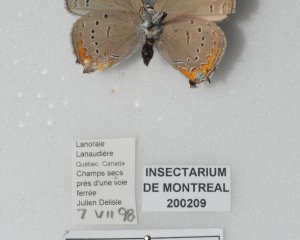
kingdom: Animalia
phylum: Arthropoda
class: Insecta
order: Lepidoptera
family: Lycaenidae
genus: Strymon
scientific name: Strymon acadica
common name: Acadian Hairstreak
